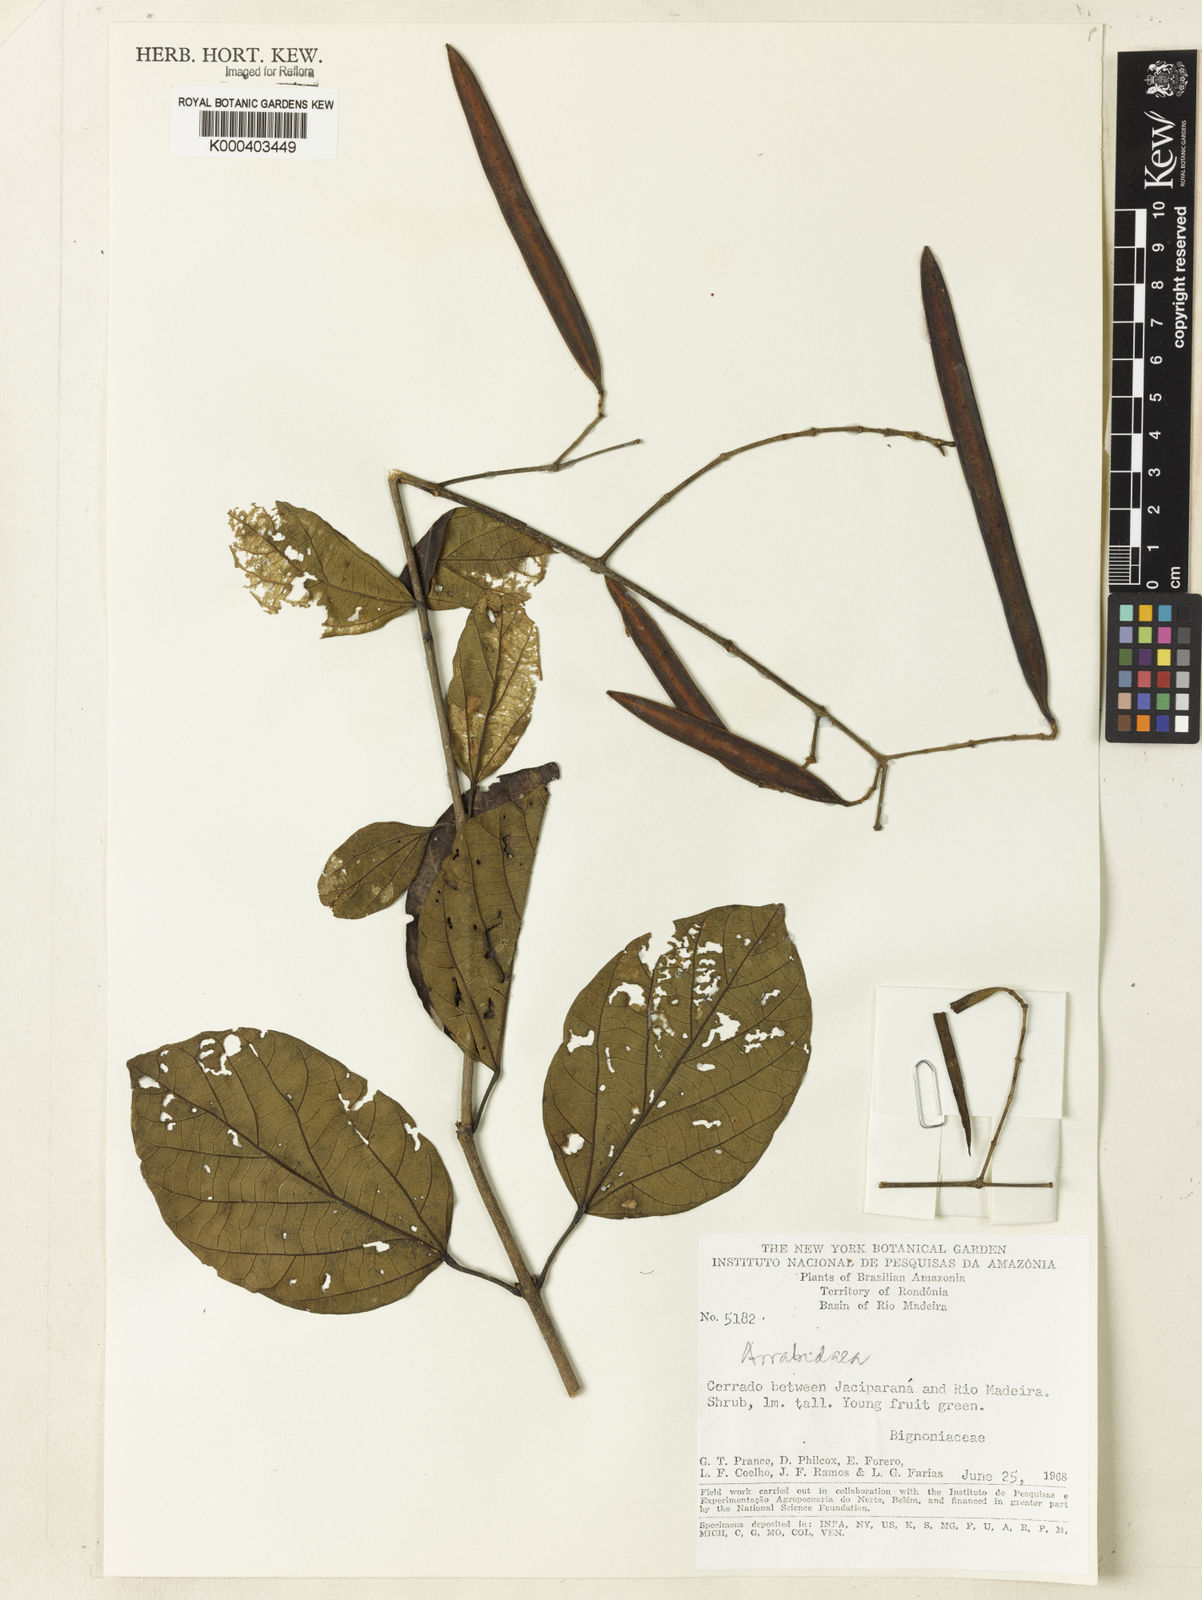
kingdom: Plantae
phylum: Tracheophyta
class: Magnoliopsida
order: Rosales
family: Rhamnaceae
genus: Arrabidaea
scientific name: Arrabidaea
